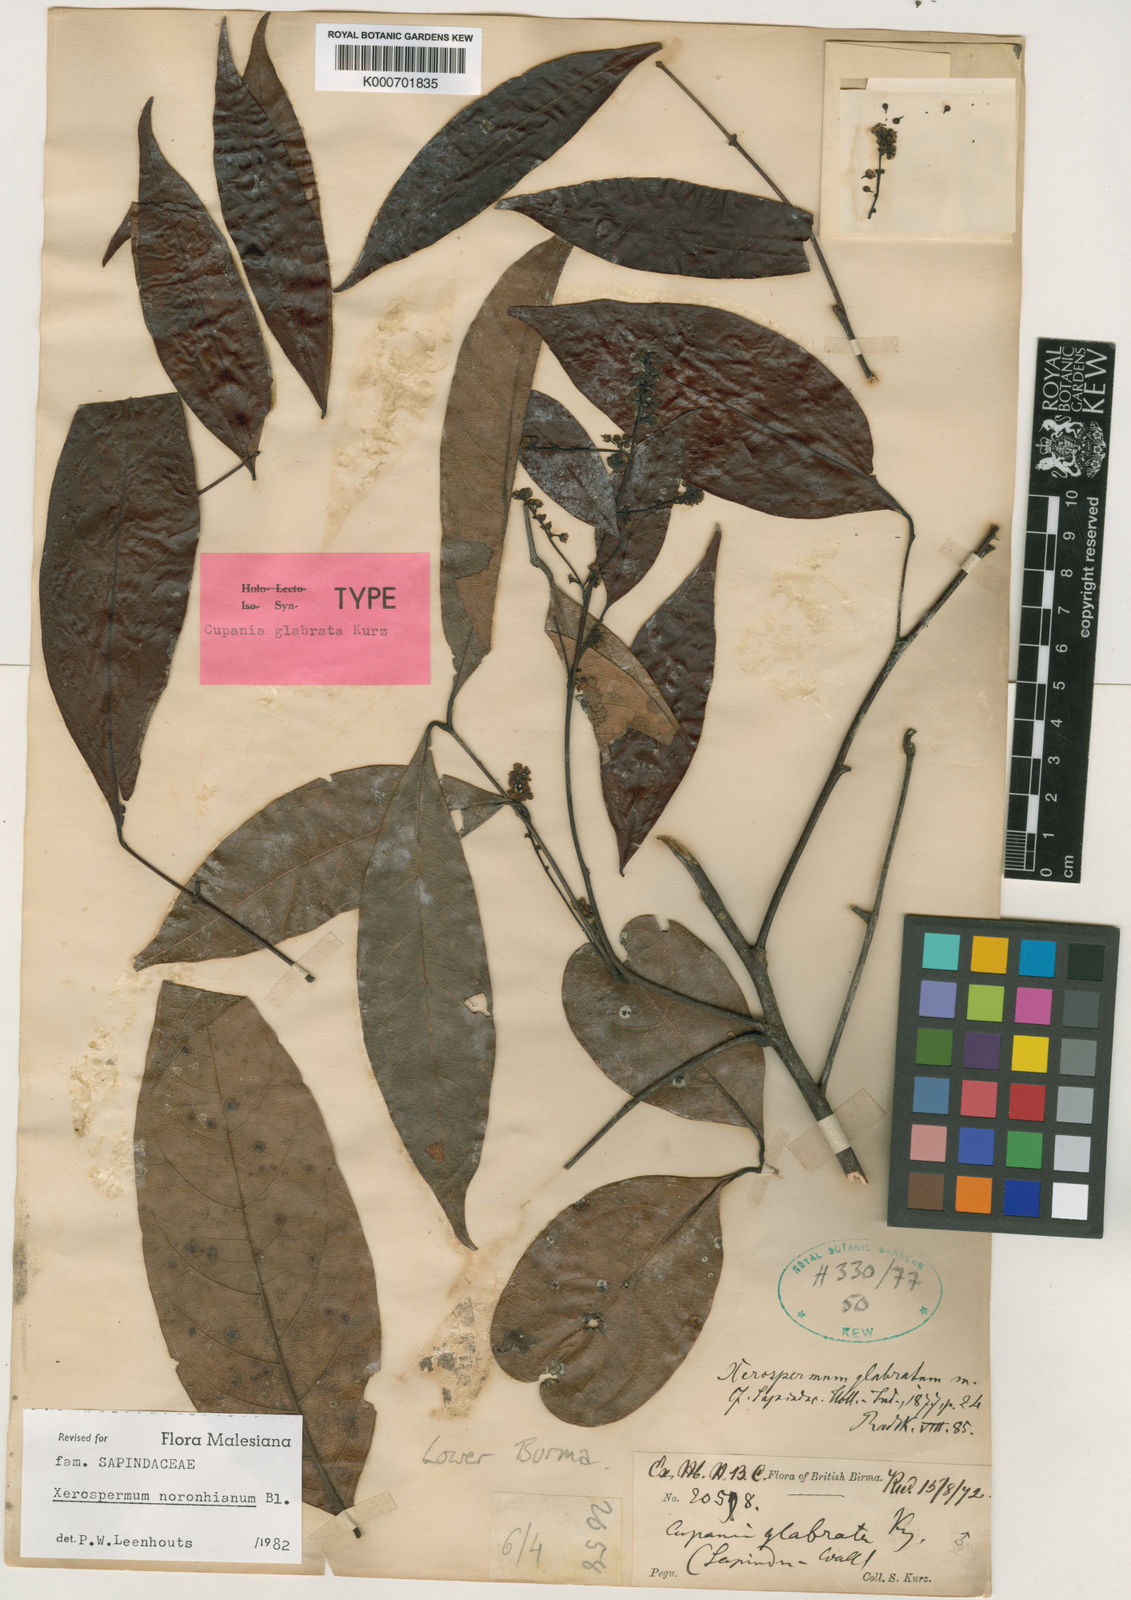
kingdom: Plantae
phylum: Tracheophyta
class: Magnoliopsida
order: Sapindales
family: Sapindaceae
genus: Xerospermum
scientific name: Xerospermum noronhianum
